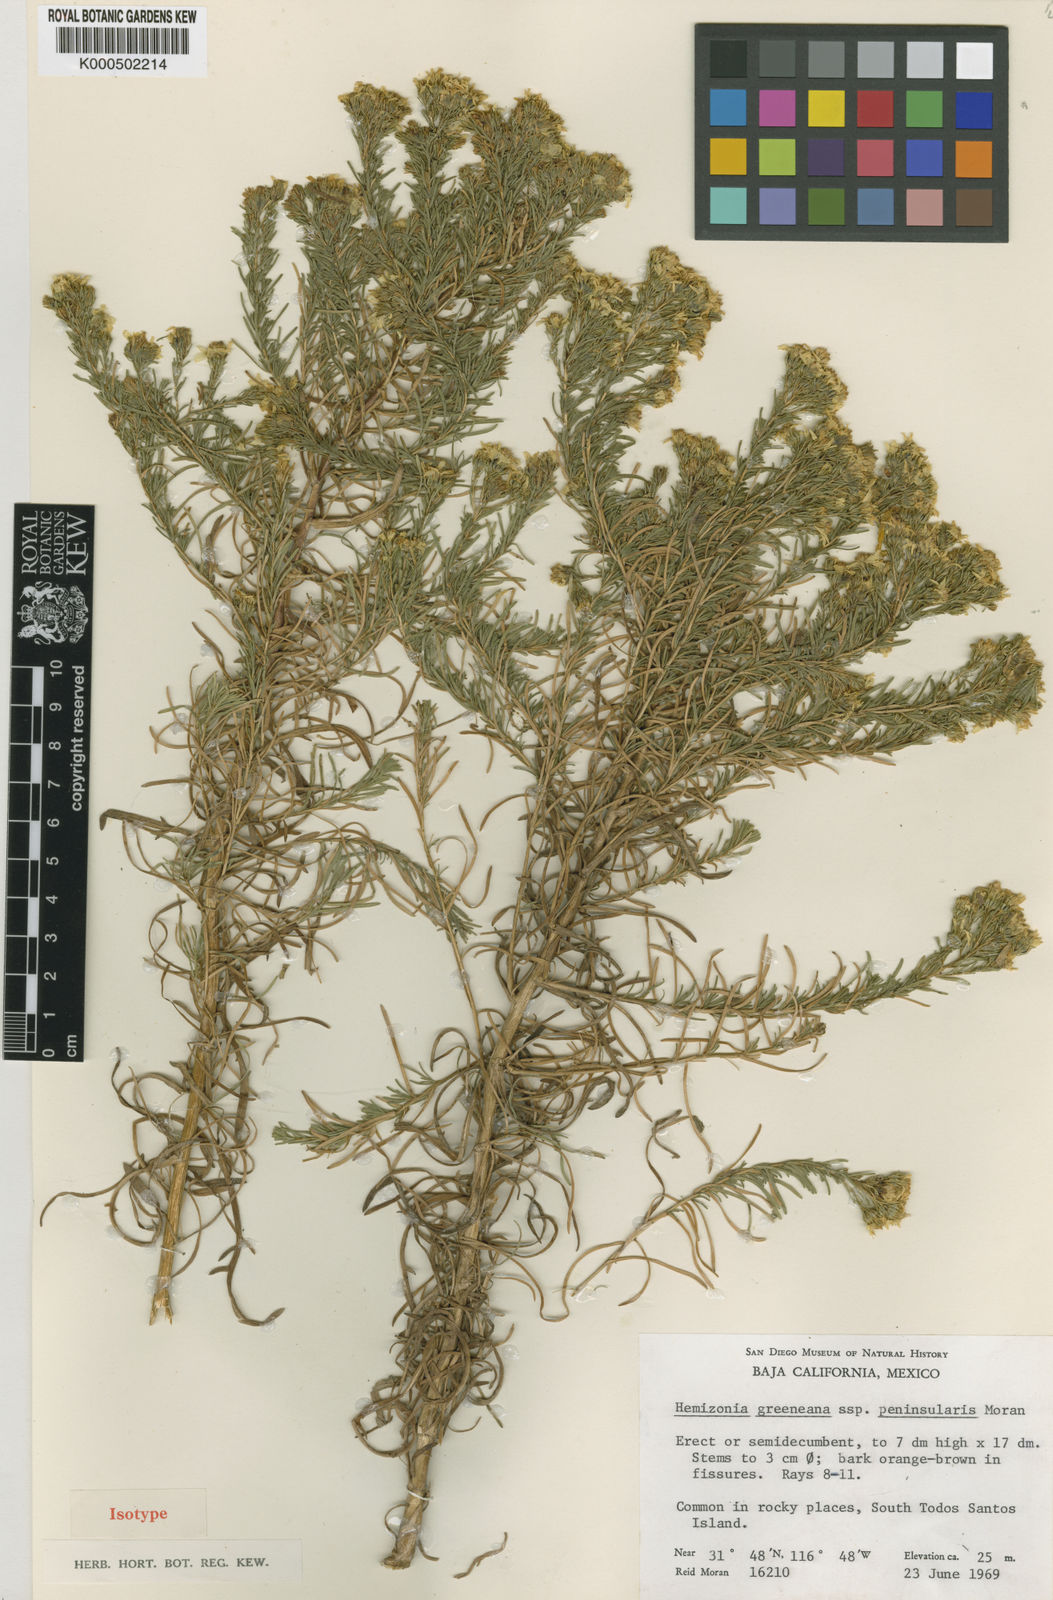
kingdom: Plantae
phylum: Tracheophyta
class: Magnoliopsida
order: Asterales
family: Asteraceae
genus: Deinandra
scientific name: Deinandra peninsularis
